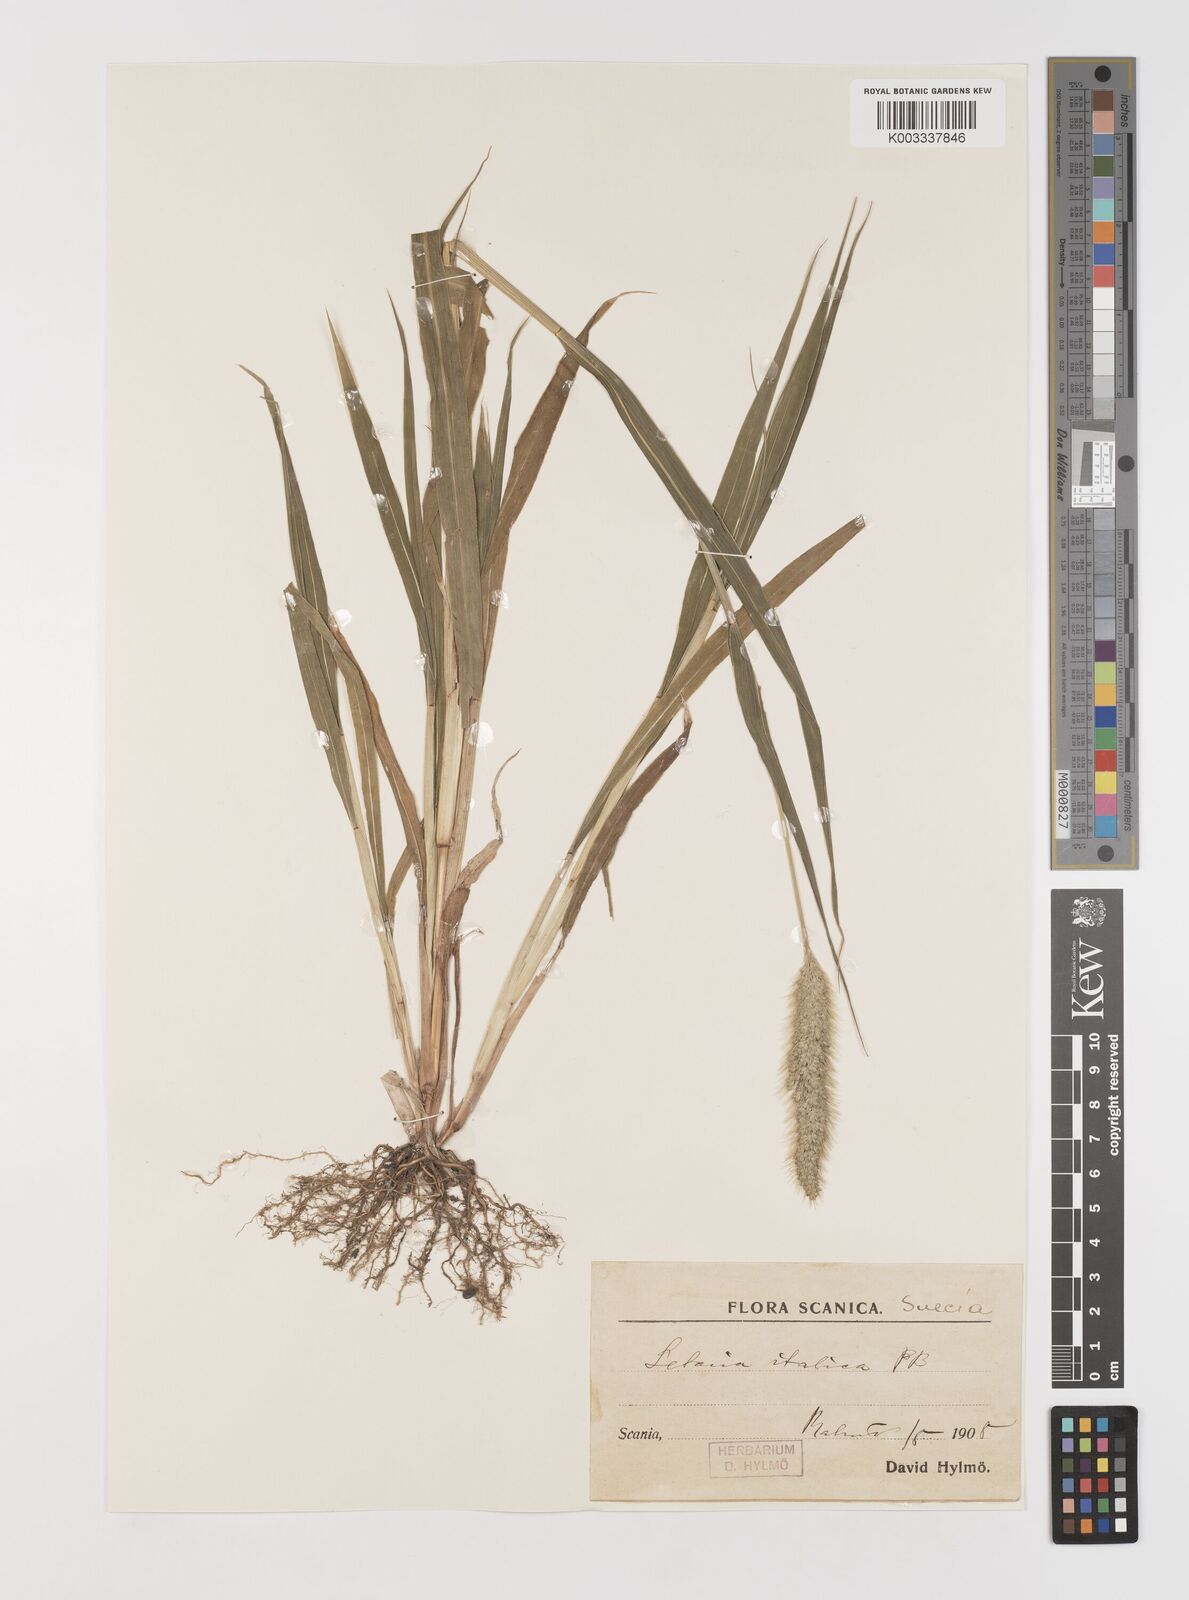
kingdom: Plantae
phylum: Tracheophyta
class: Liliopsida
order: Poales
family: Poaceae
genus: Setaria
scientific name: Setaria viridis
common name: Green bristlegrass
